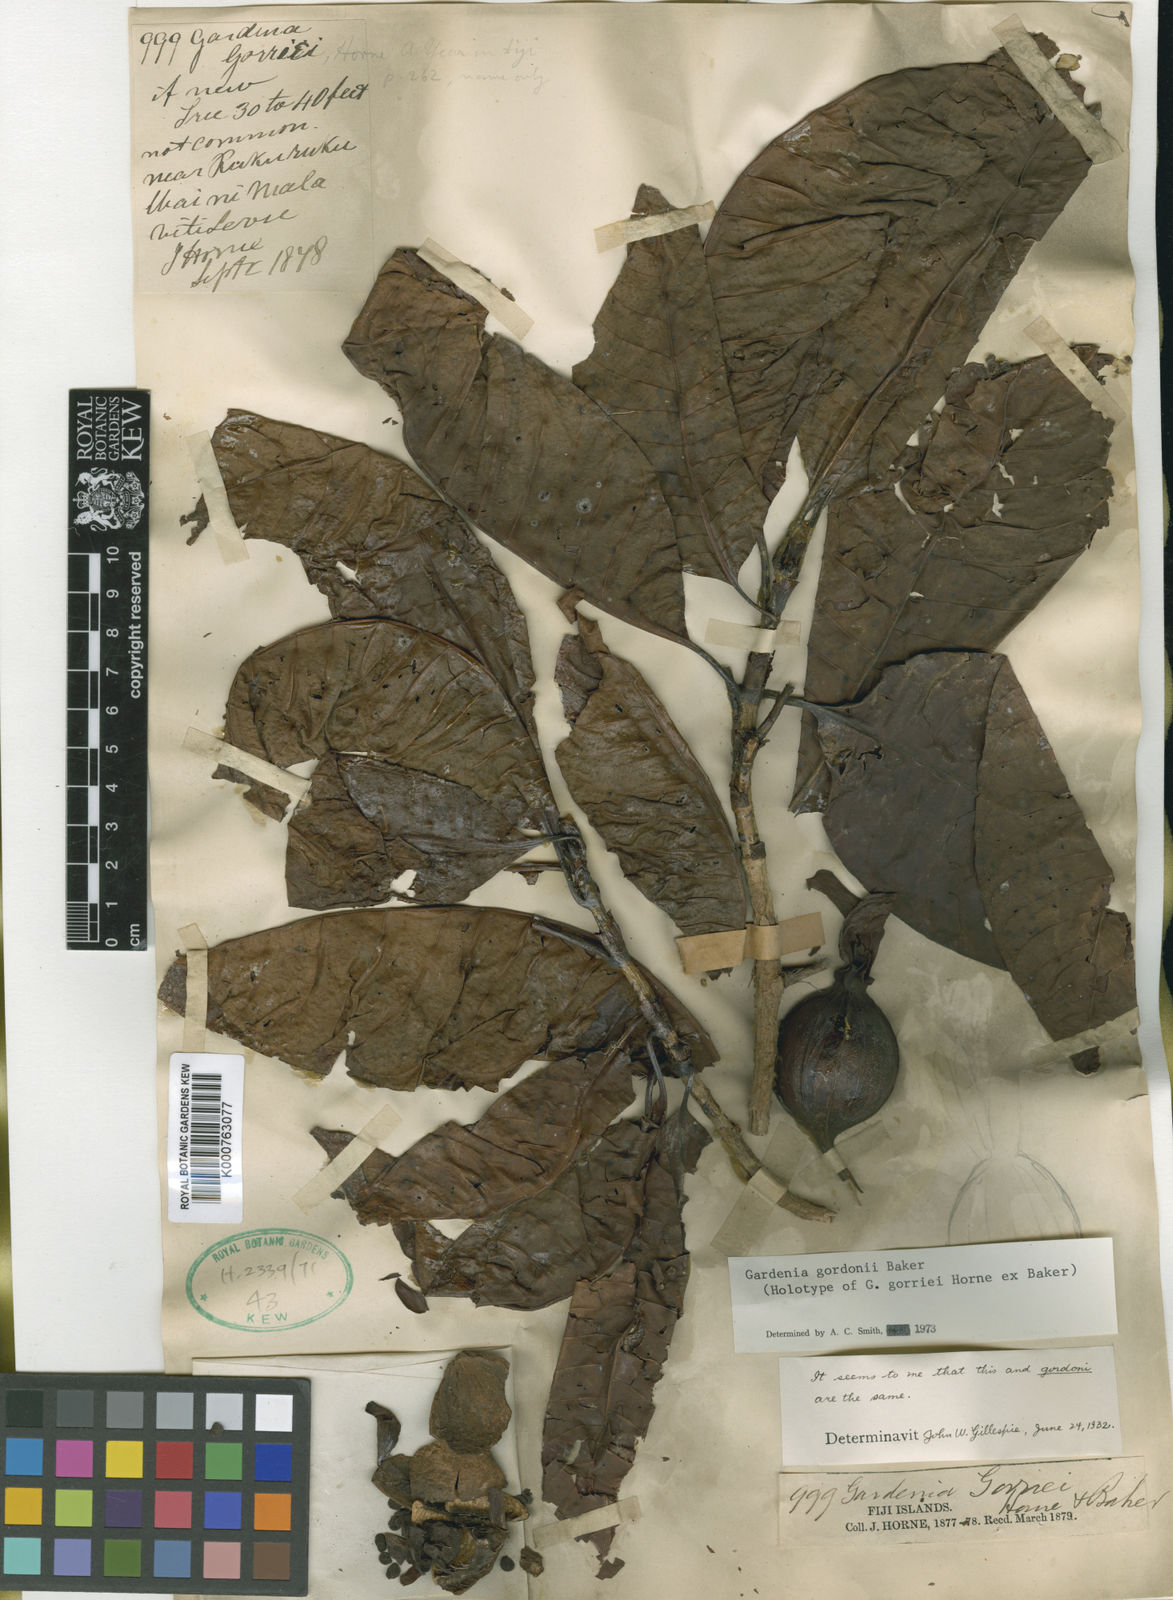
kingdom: Plantae
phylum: Tracheophyta
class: Magnoliopsida
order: Gentianales
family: Rubiaceae
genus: Gardenia
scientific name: Gardenia gordonii
